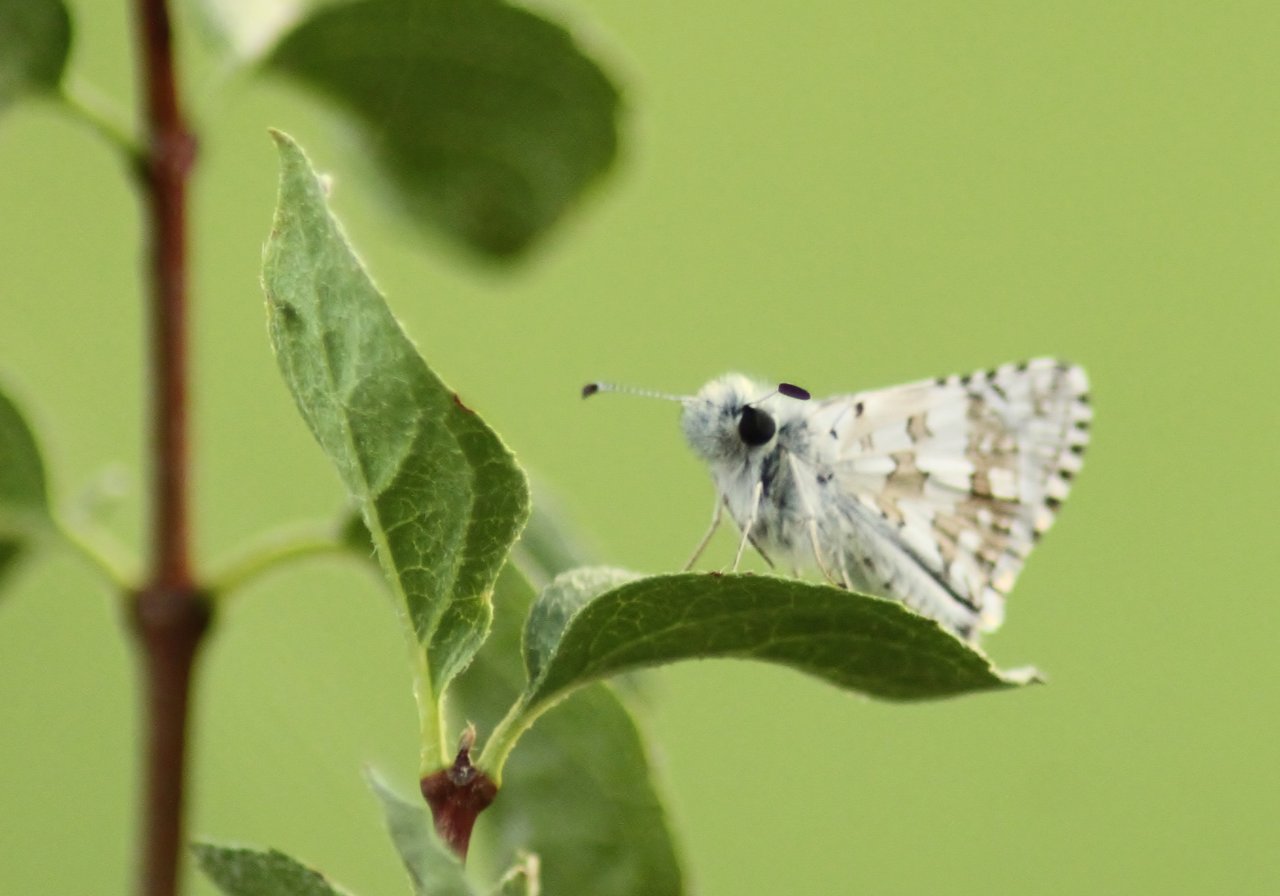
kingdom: Animalia
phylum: Arthropoda
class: Insecta
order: Lepidoptera
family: Hesperiidae
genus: Pyrgus
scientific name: Pyrgus communis
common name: Common Checkered-Skipper
